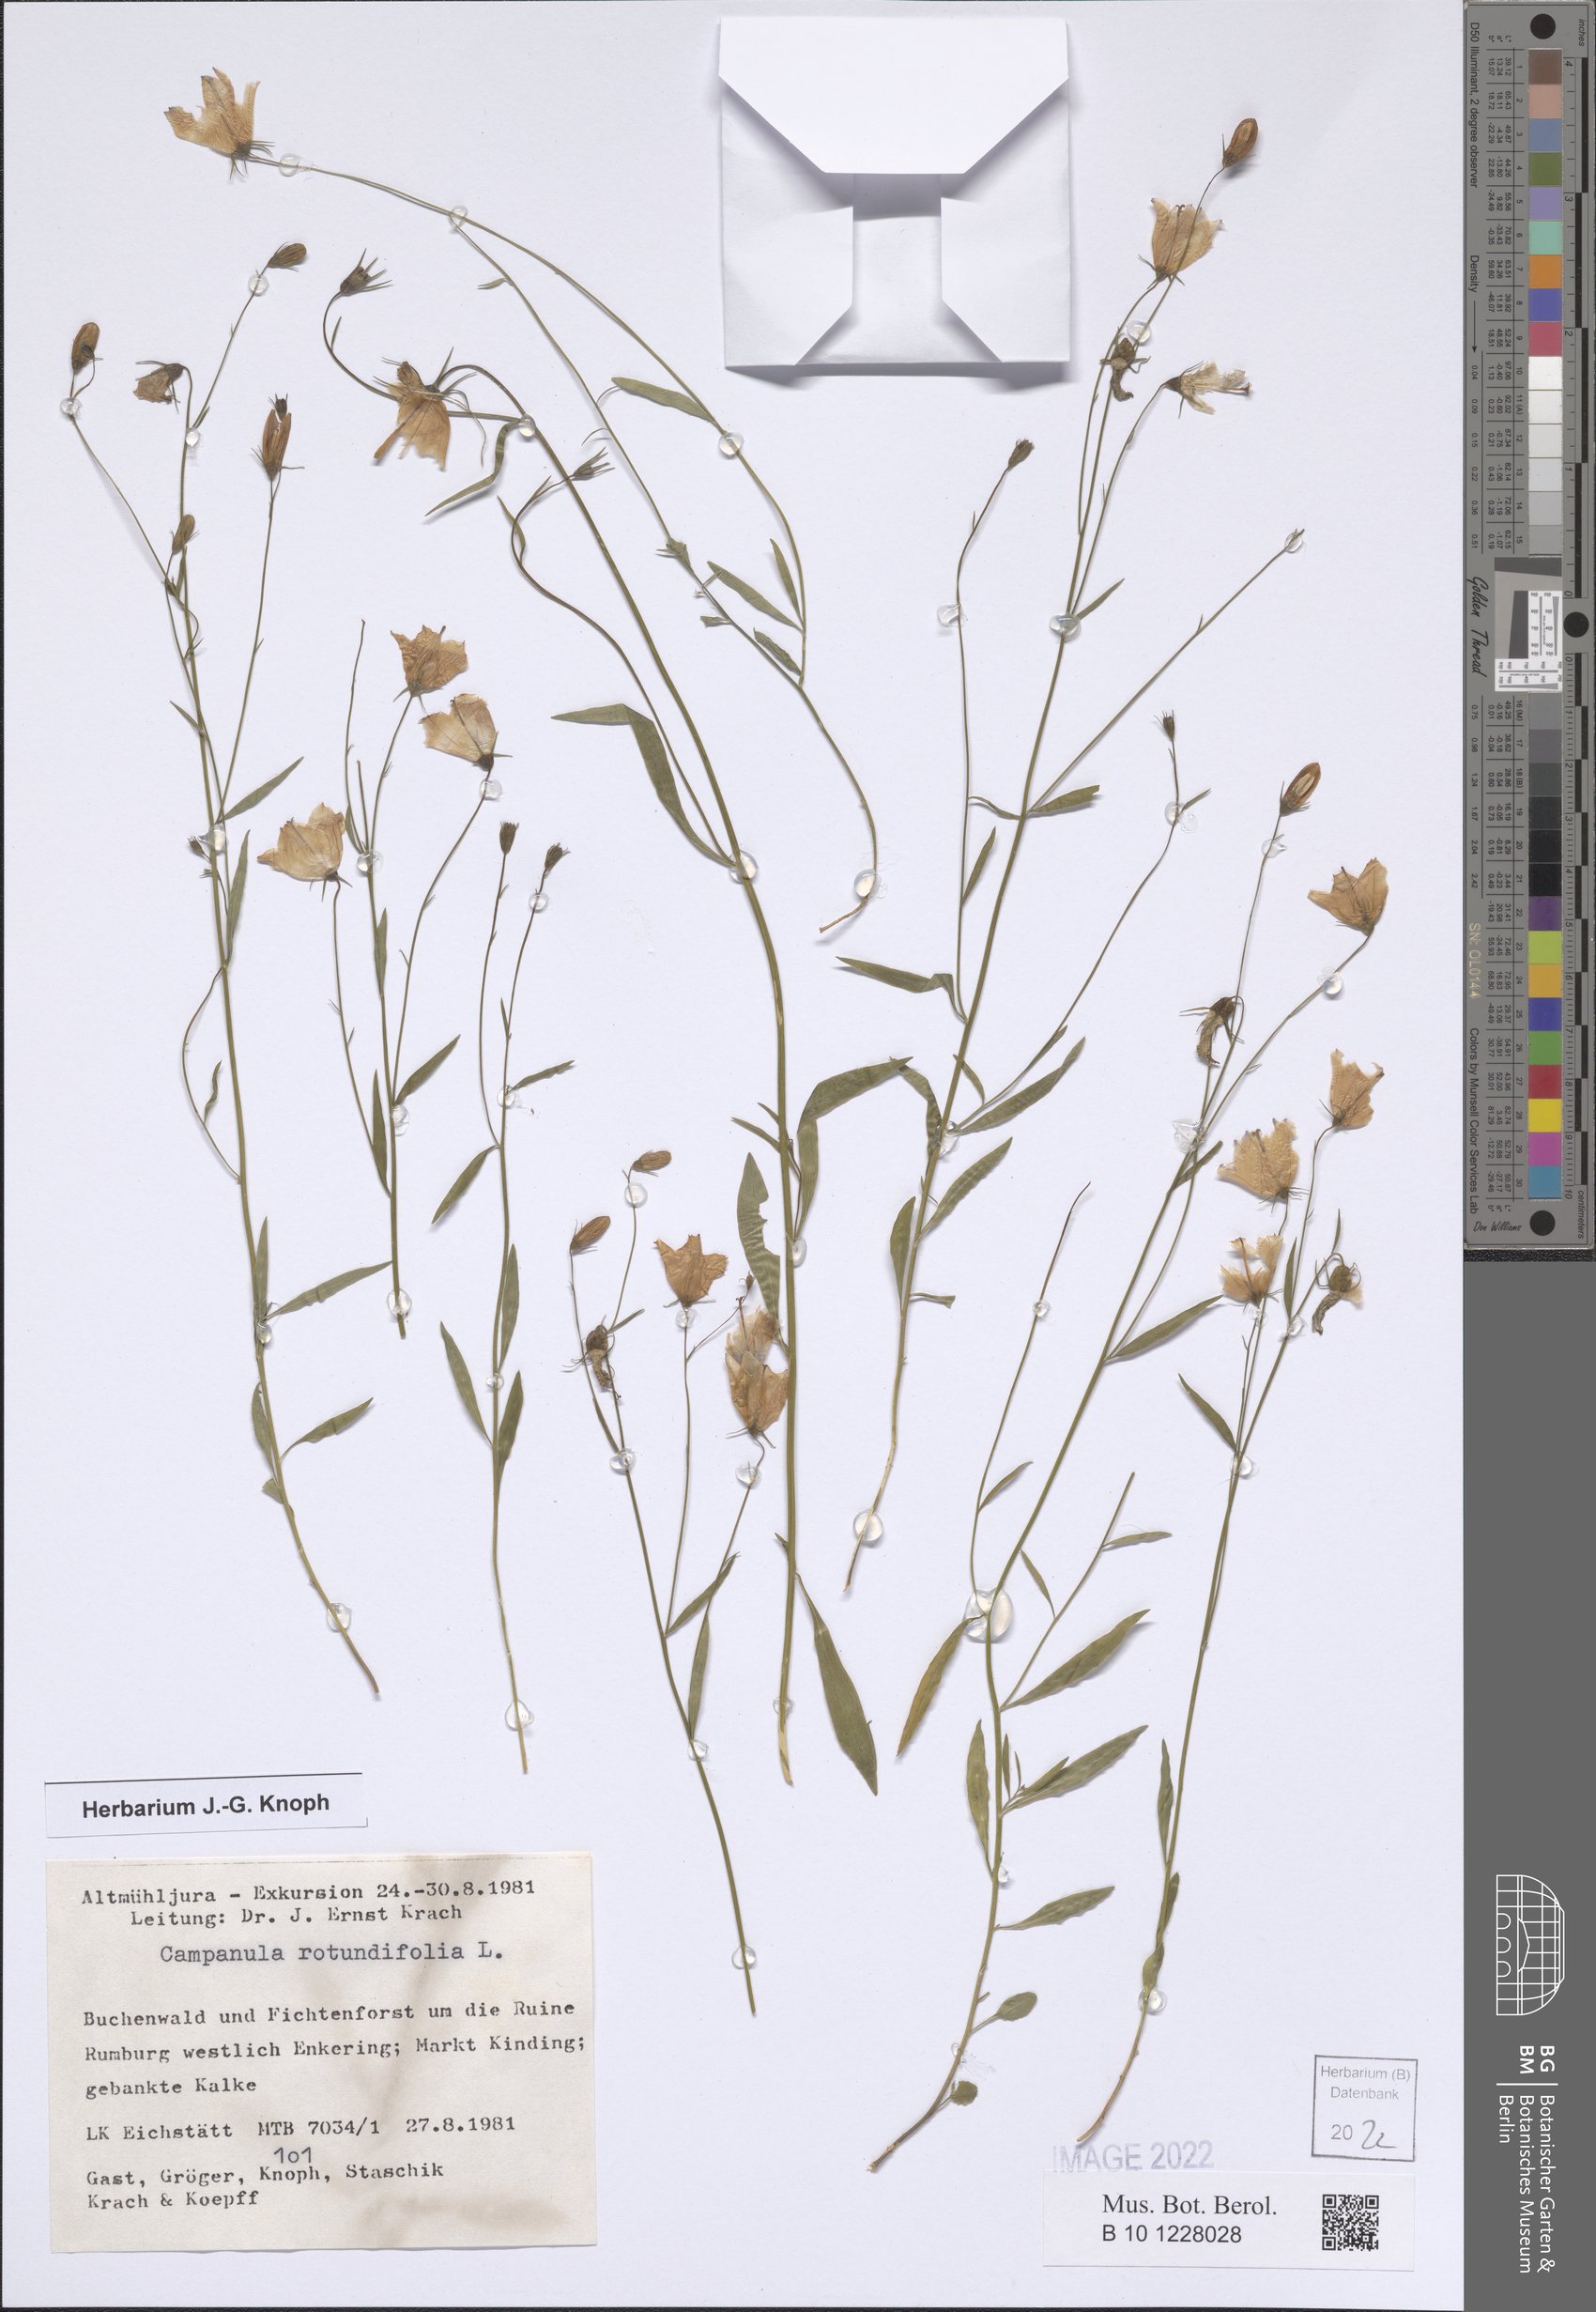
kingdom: Plantae
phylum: Tracheophyta
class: Magnoliopsida
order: Asterales
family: Campanulaceae
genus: Campanula
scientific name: Campanula rotundifolia
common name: Harebell
